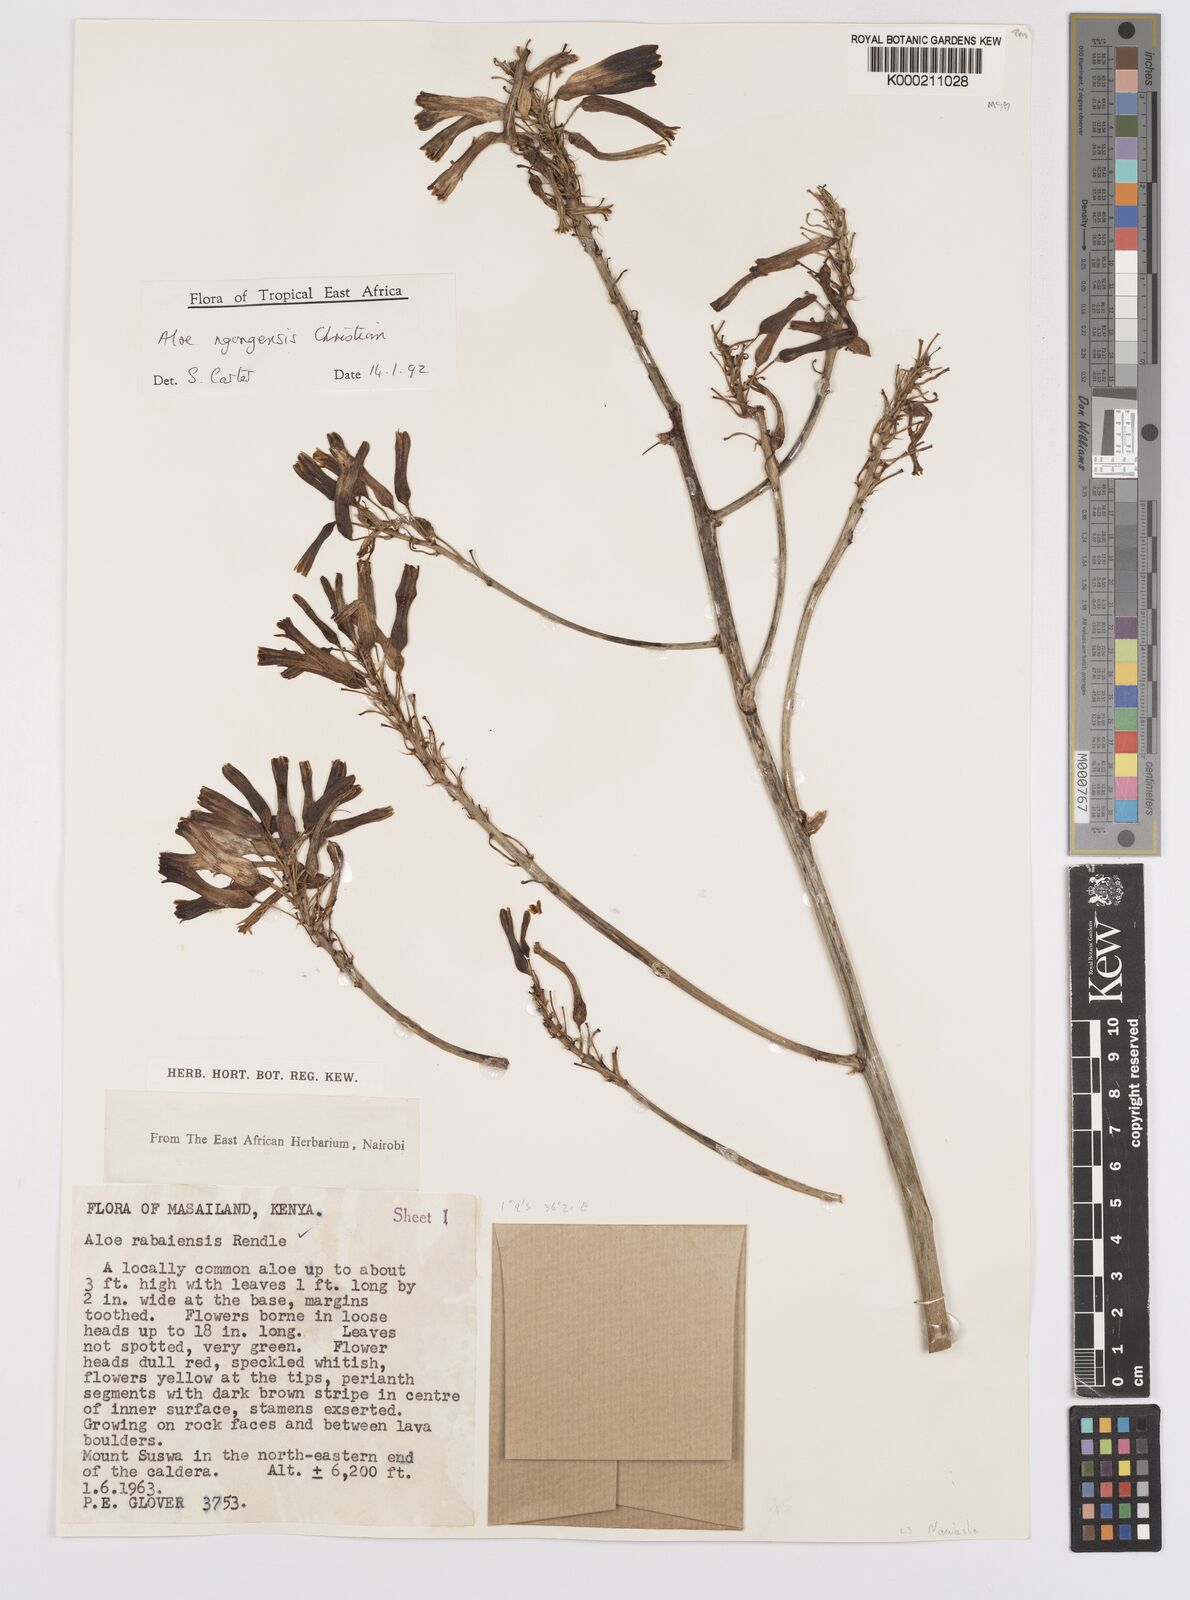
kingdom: Plantae
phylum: Tracheophyta
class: Liliopsida
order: Asparagales
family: Asphodelaceae
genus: Aloe
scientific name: Aloe ngongensis
